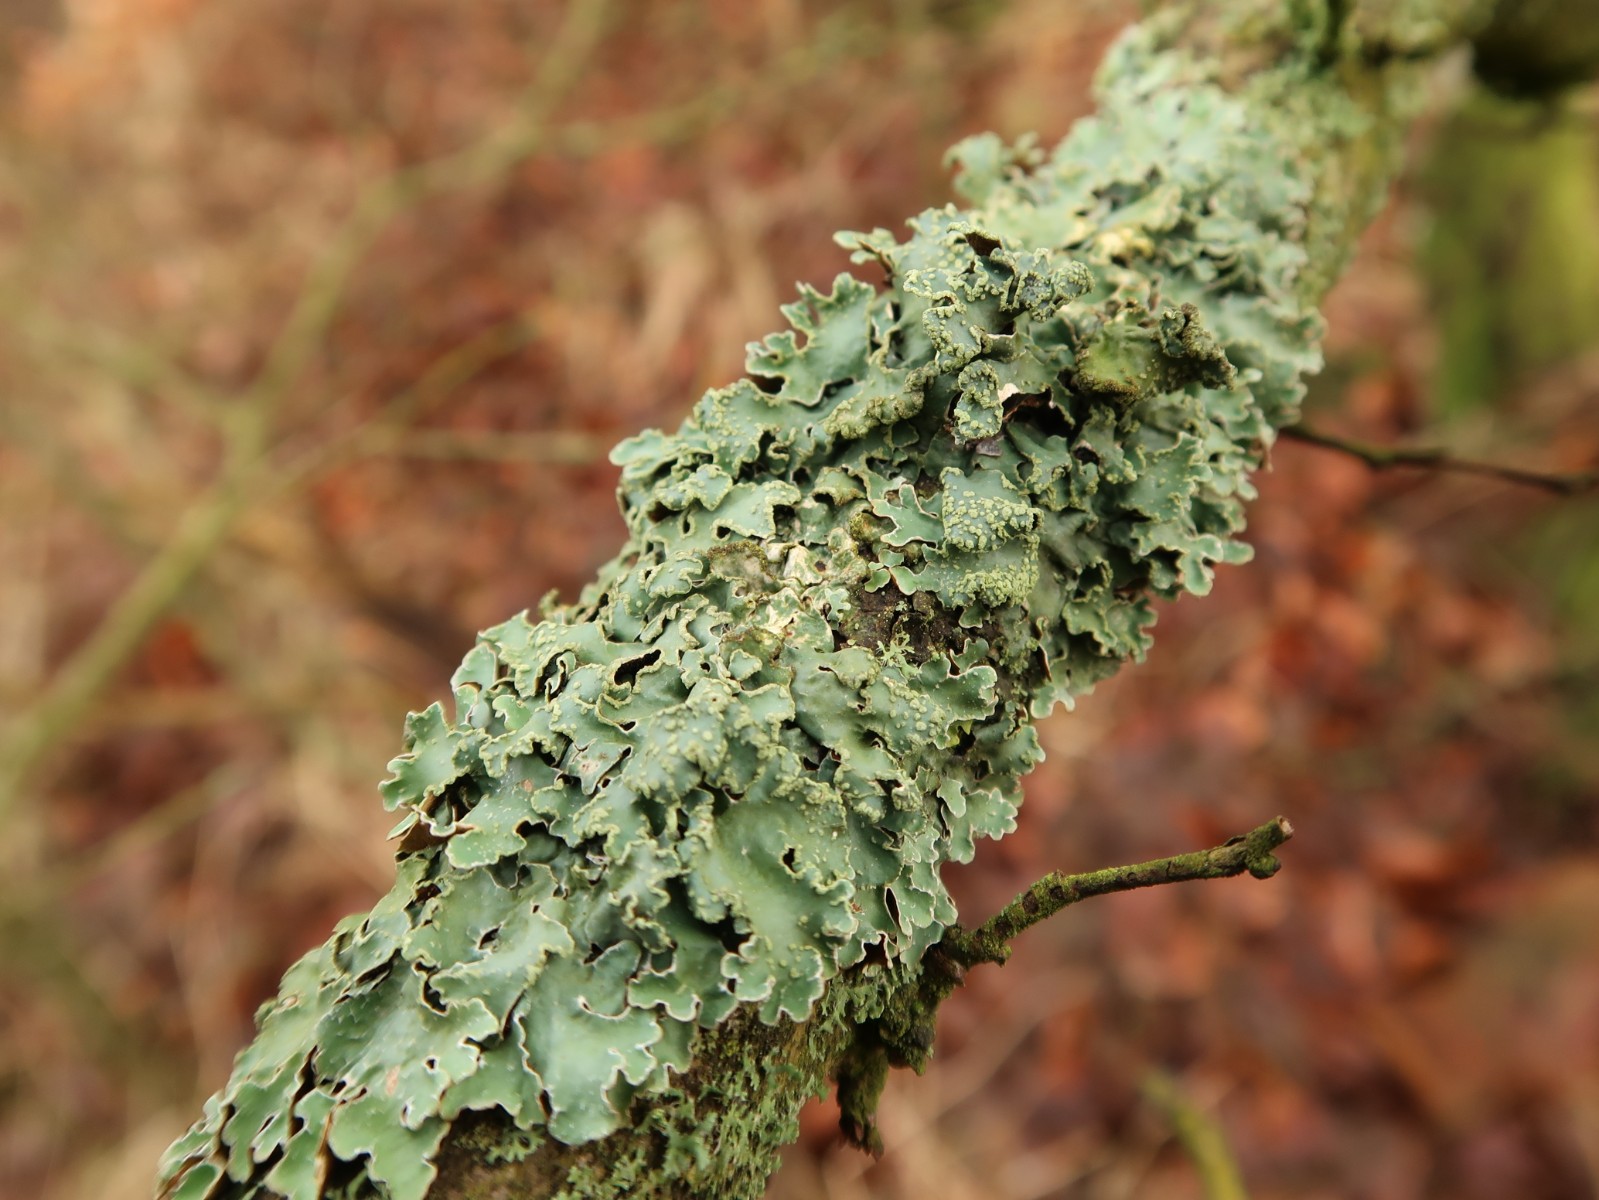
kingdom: Fungi
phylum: Ascomycota
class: Lecanoromycetes
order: Lecanorales
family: Parmeliaceae
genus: Parmelia
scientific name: Parmelia sulcata
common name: rynket skållav
